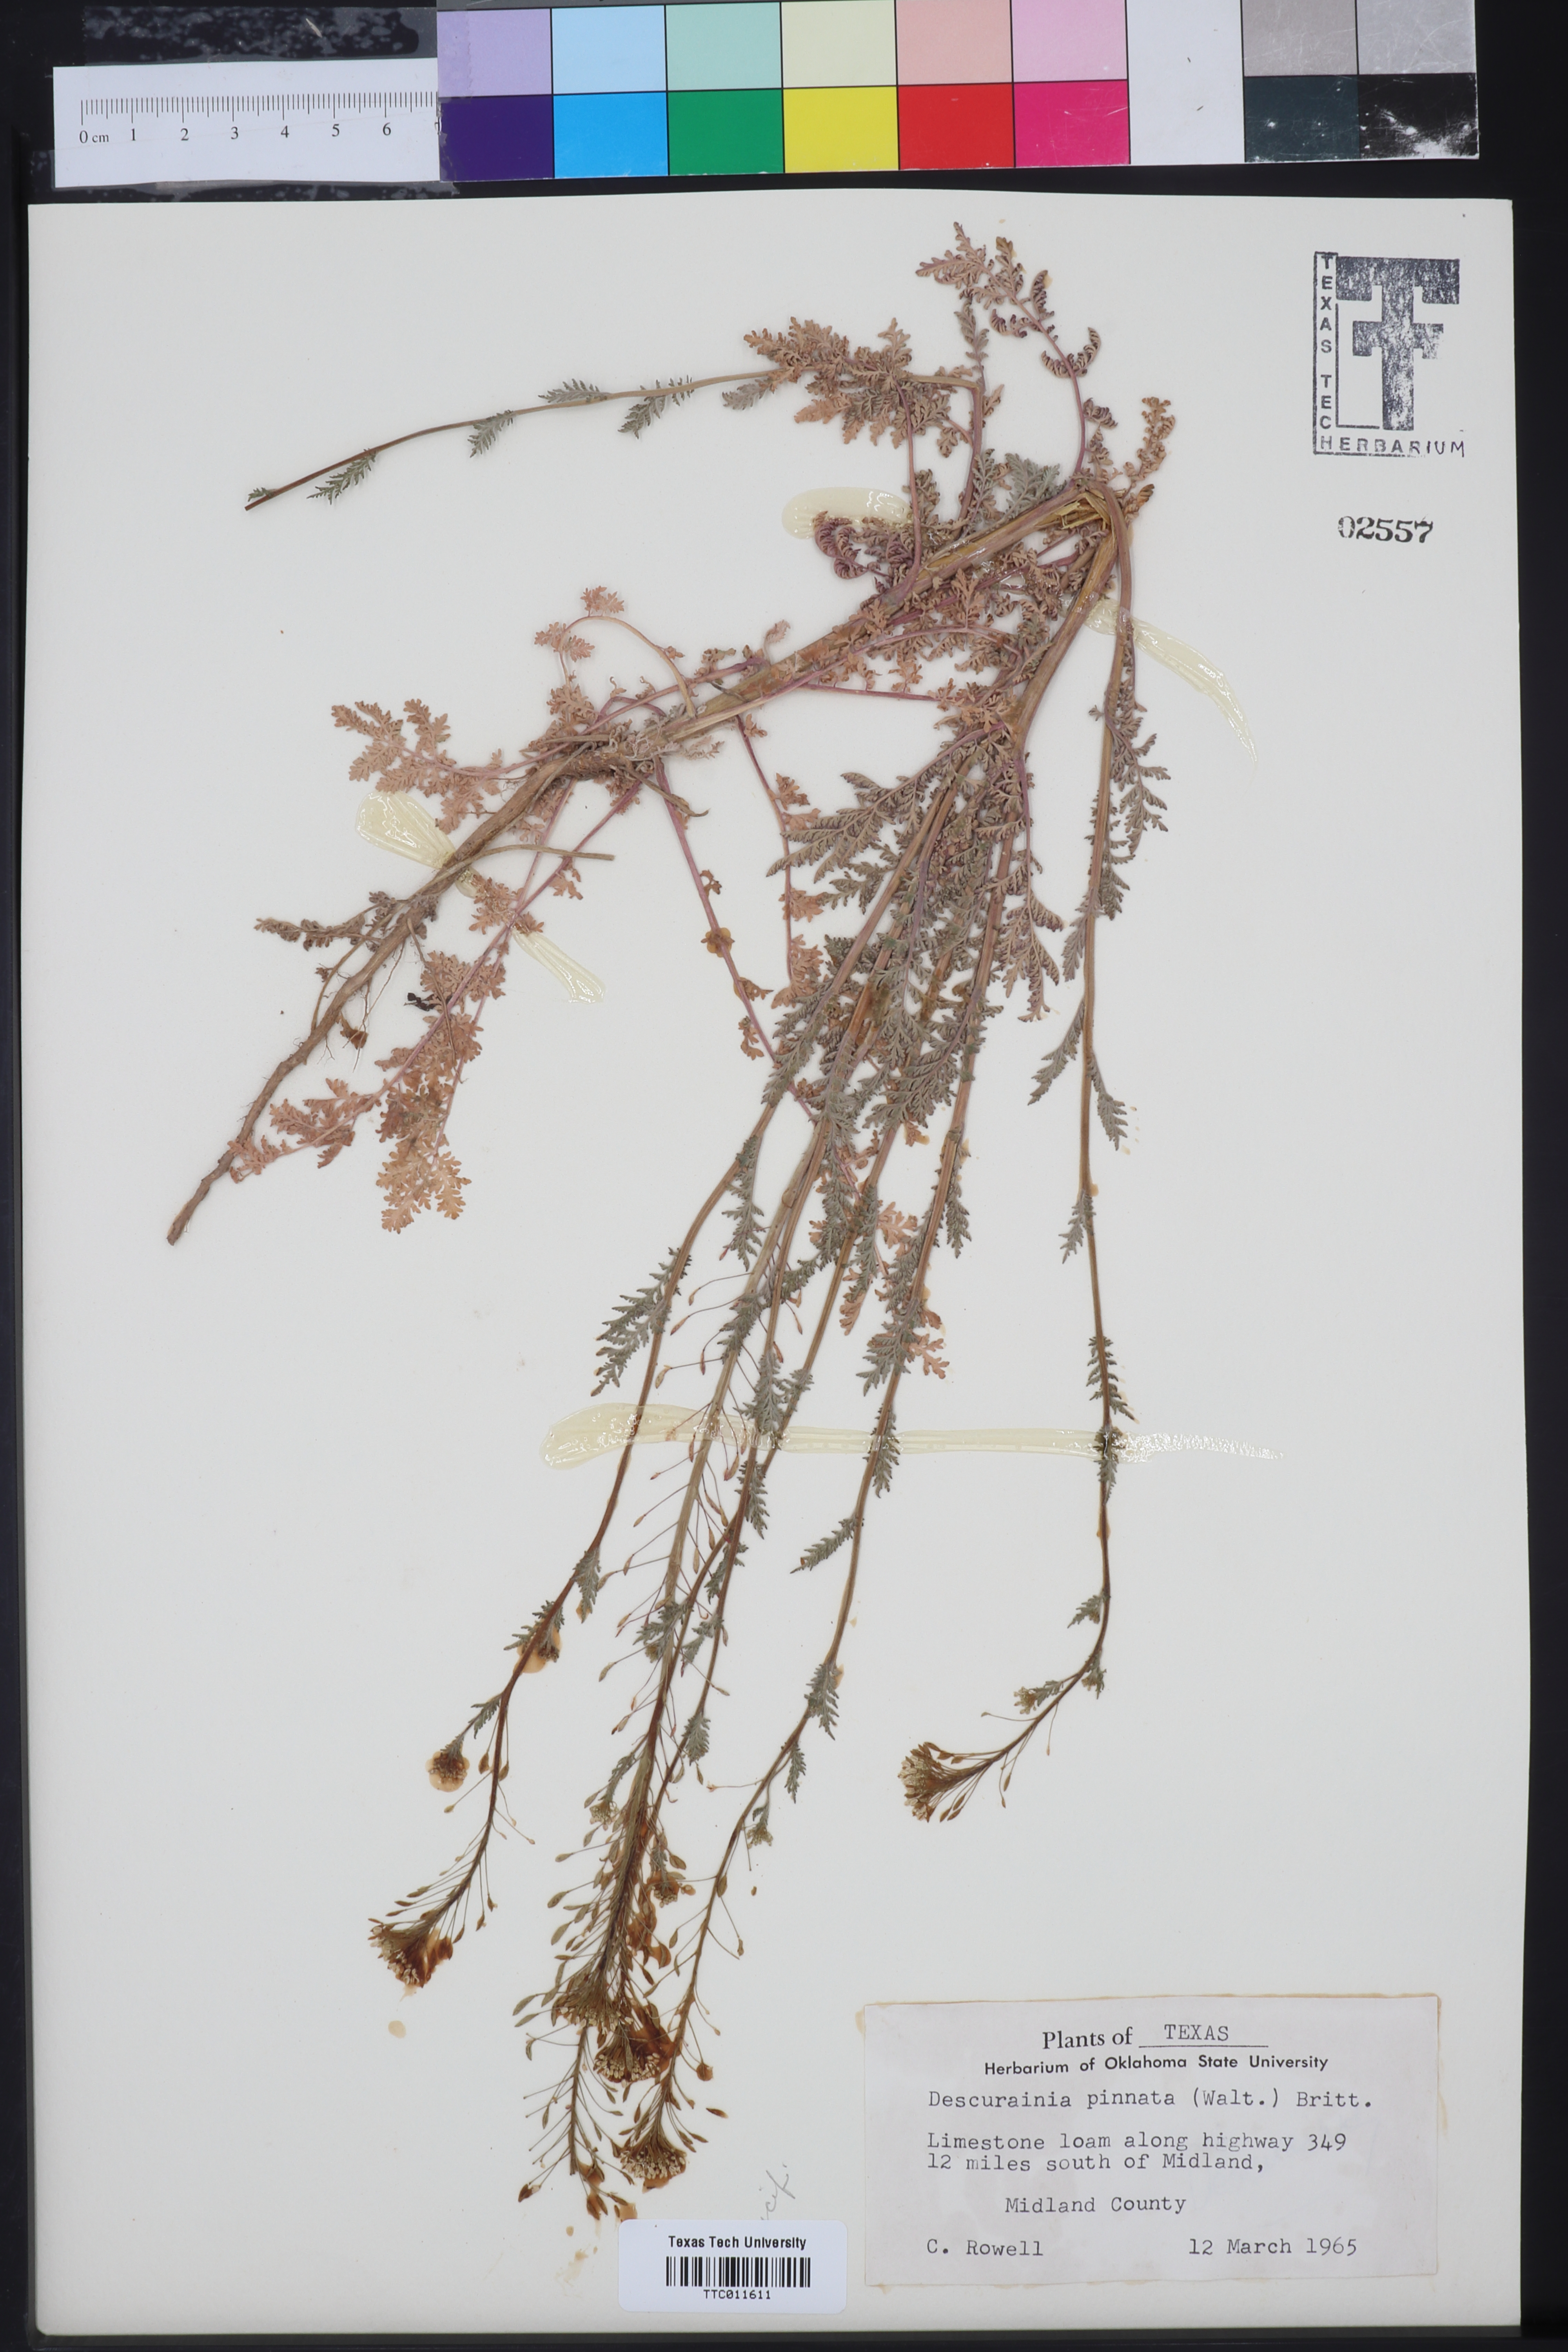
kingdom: Plantae
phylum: Tracheophyta
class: Magnoliopsida
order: Brassicales
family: Brassicaceae
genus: Descurainia
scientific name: Descurainia pinnata
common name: Western tansy mustard
